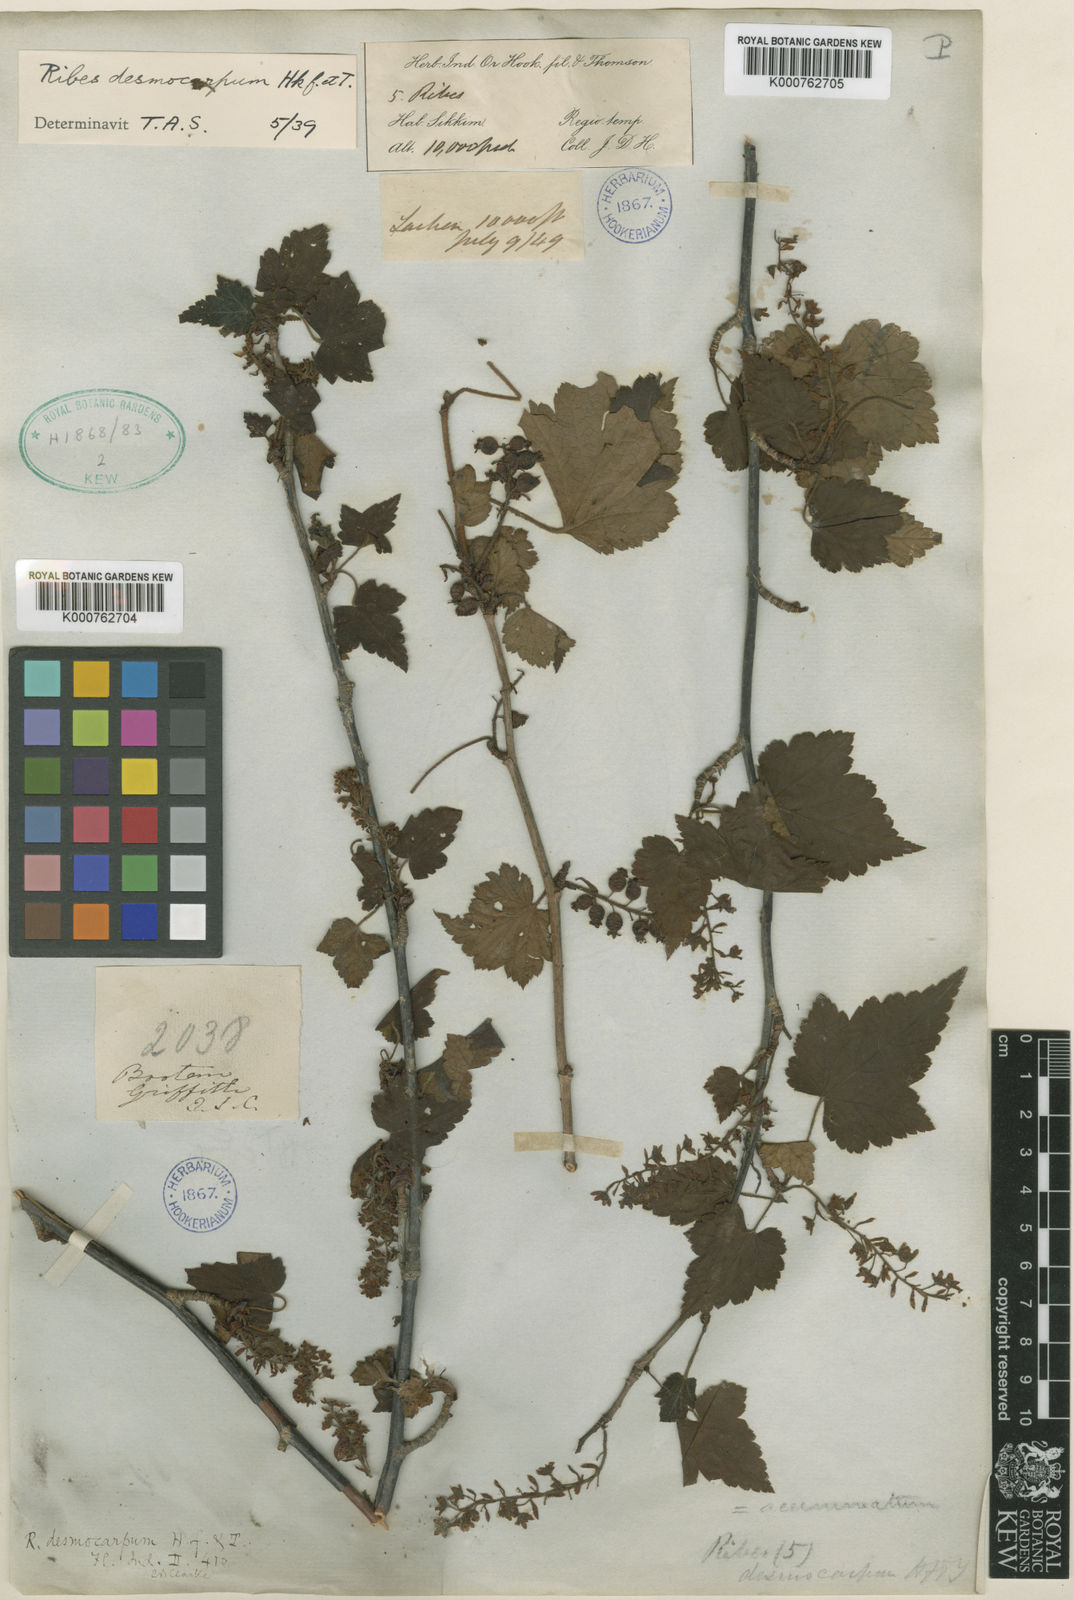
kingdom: Plantae
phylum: Tracheophyta
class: Magnoliopsida
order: Saxifragales
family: Grossulariaceae
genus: Ribes
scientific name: Ribes takare
